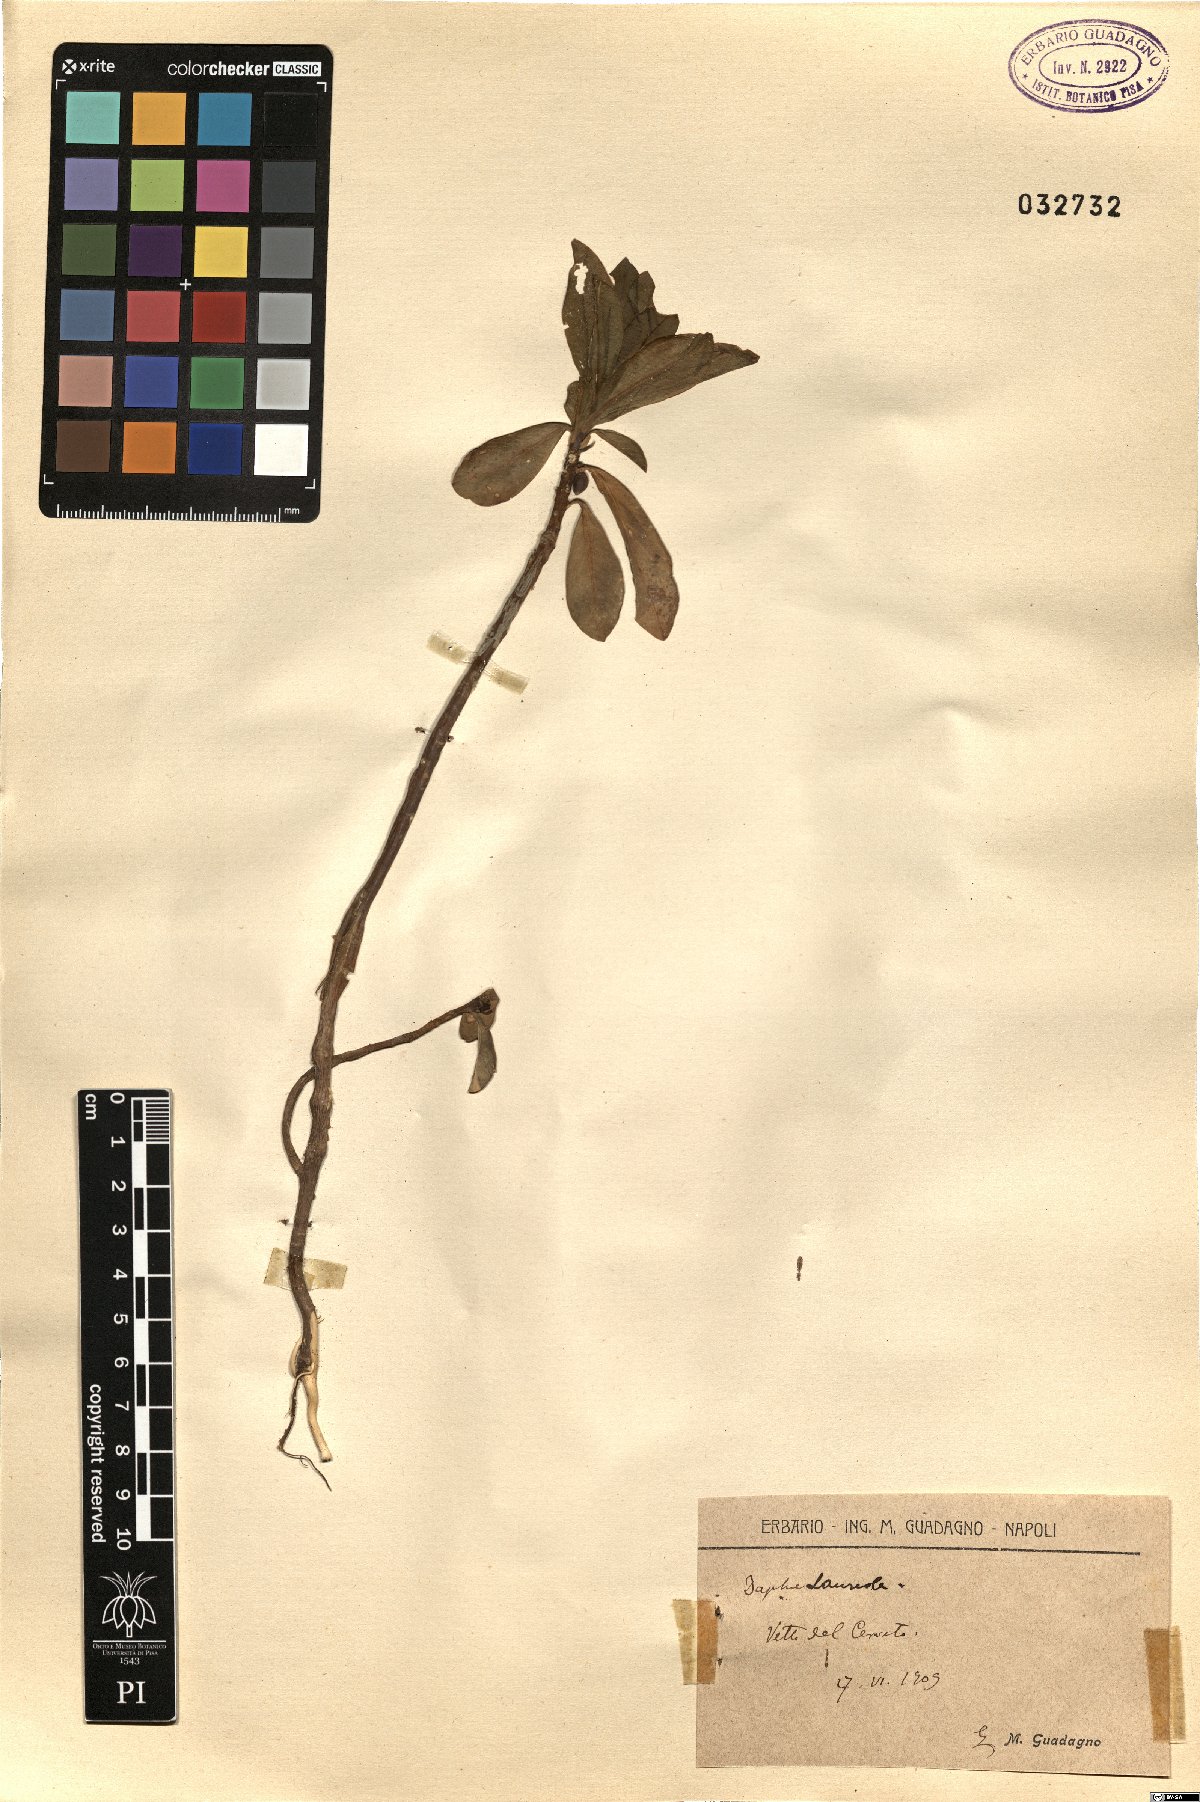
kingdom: Plantae
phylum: Tracheophyta
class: Magnoliopsida
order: Malvales
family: Thymelaeaceae
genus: Daphne
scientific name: Daphne laureola
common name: Spurge-laurel
